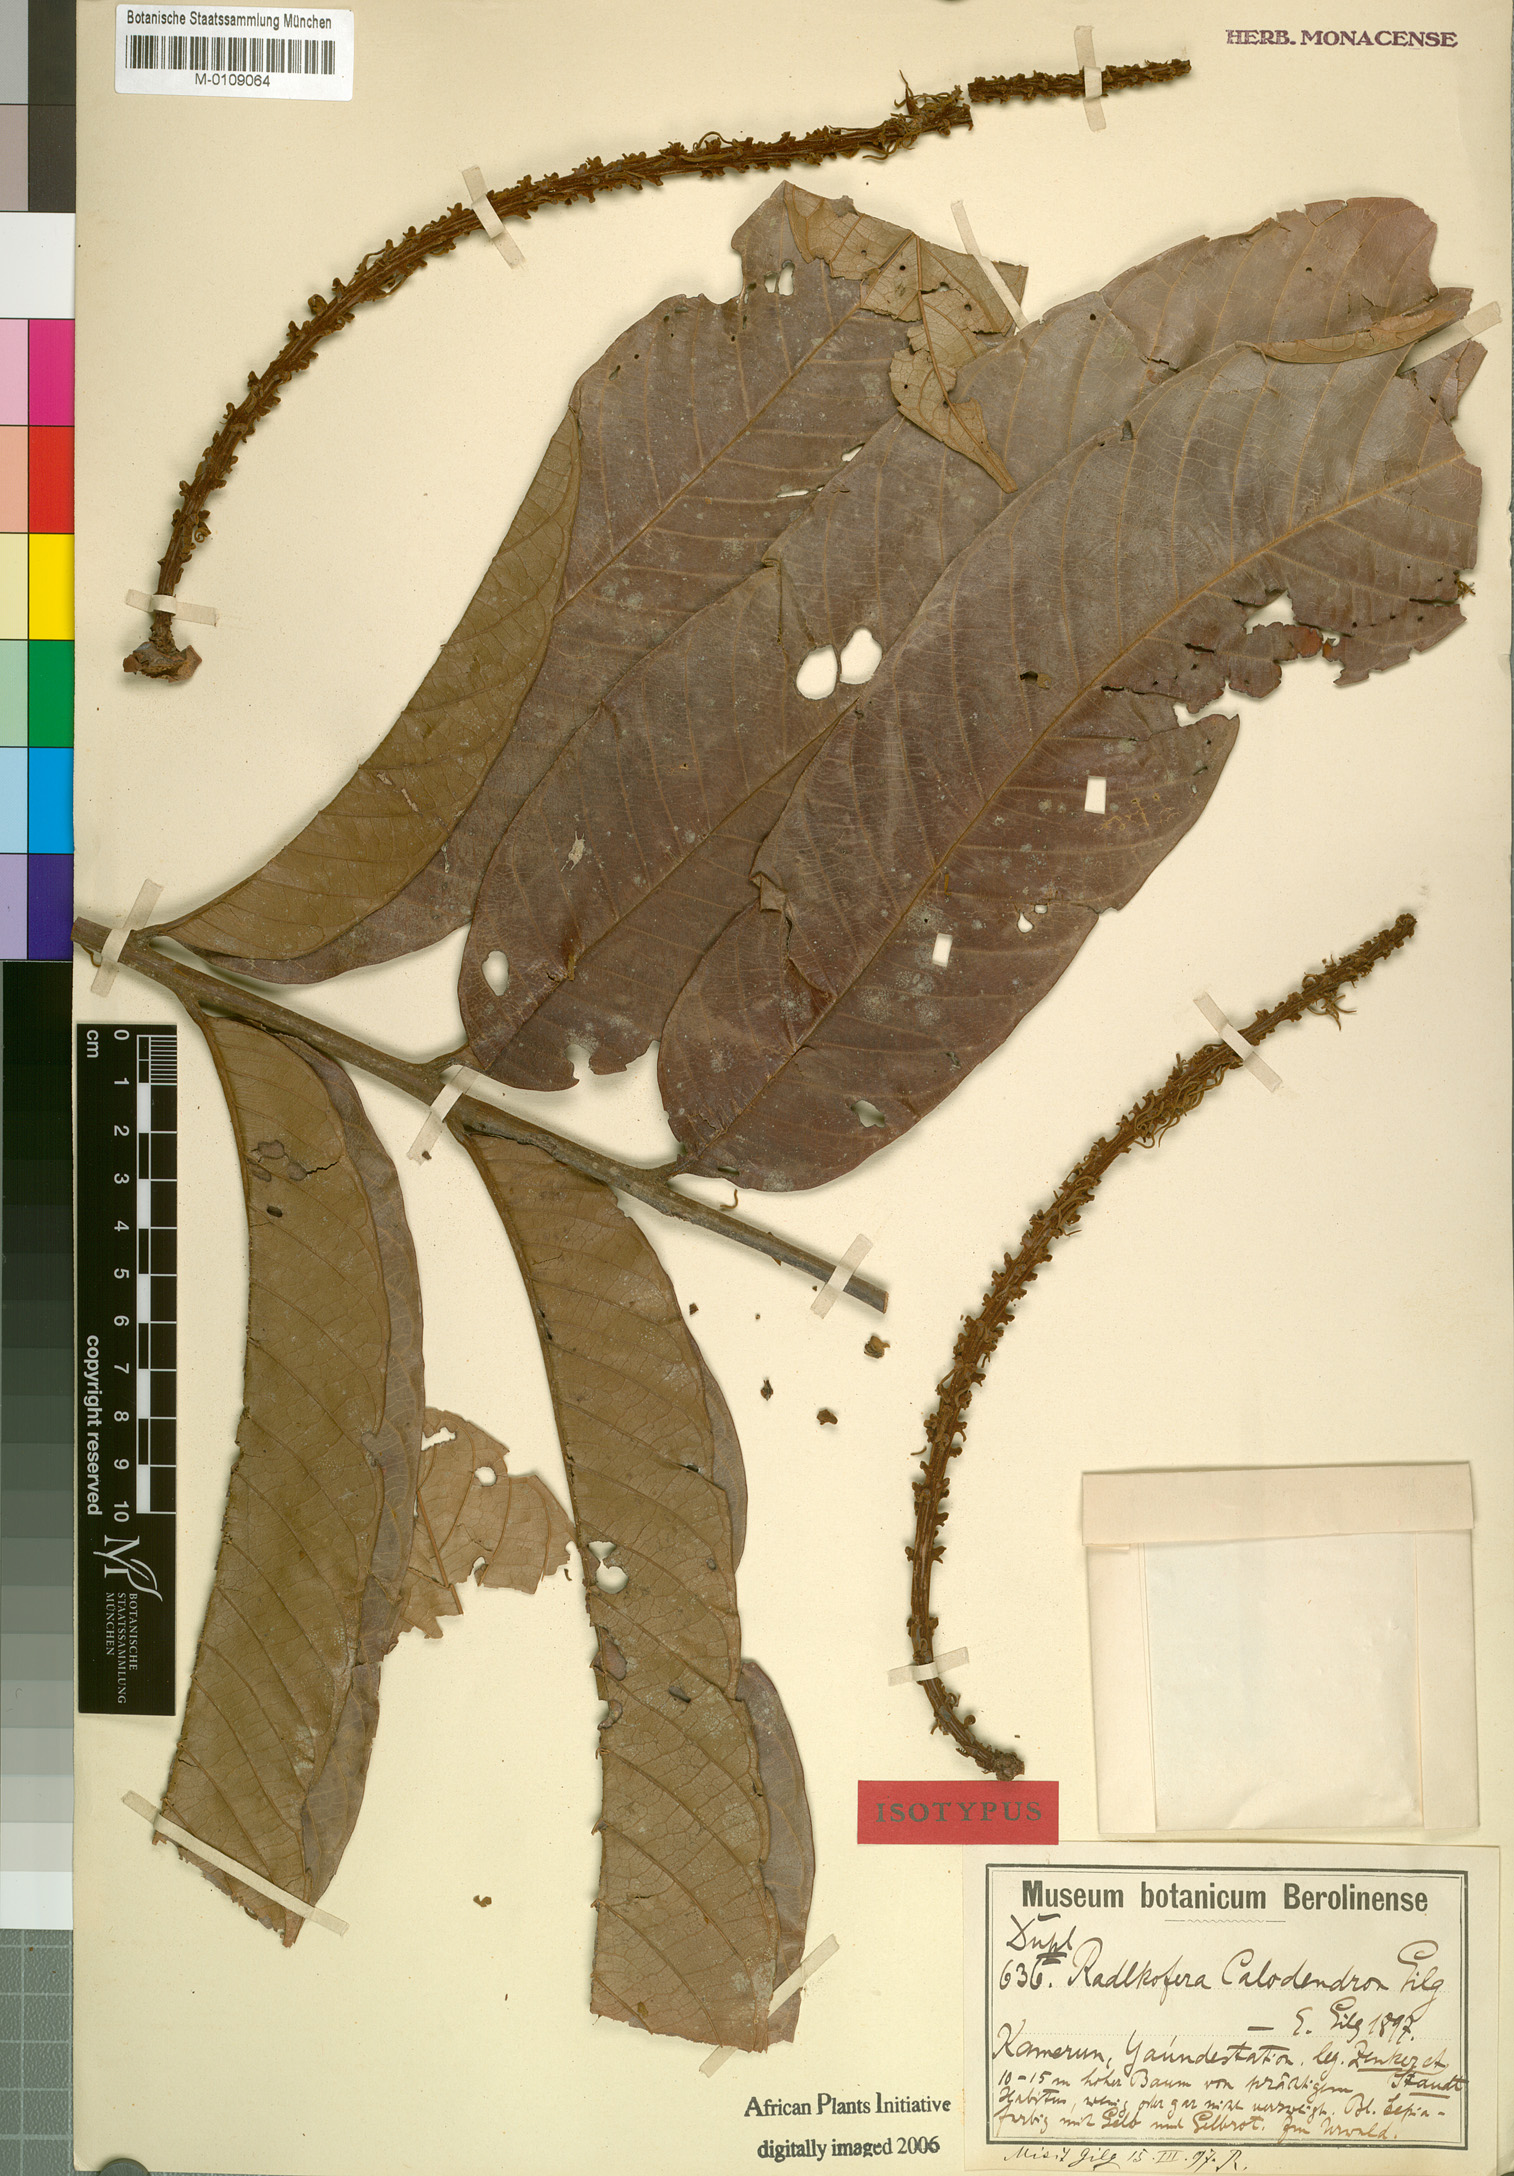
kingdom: Plantae
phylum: Tracheophyta
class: Magnoliopsida
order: Sapindales
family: Sapindaceae
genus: Radlkofera
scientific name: Radlkofera calodendron
